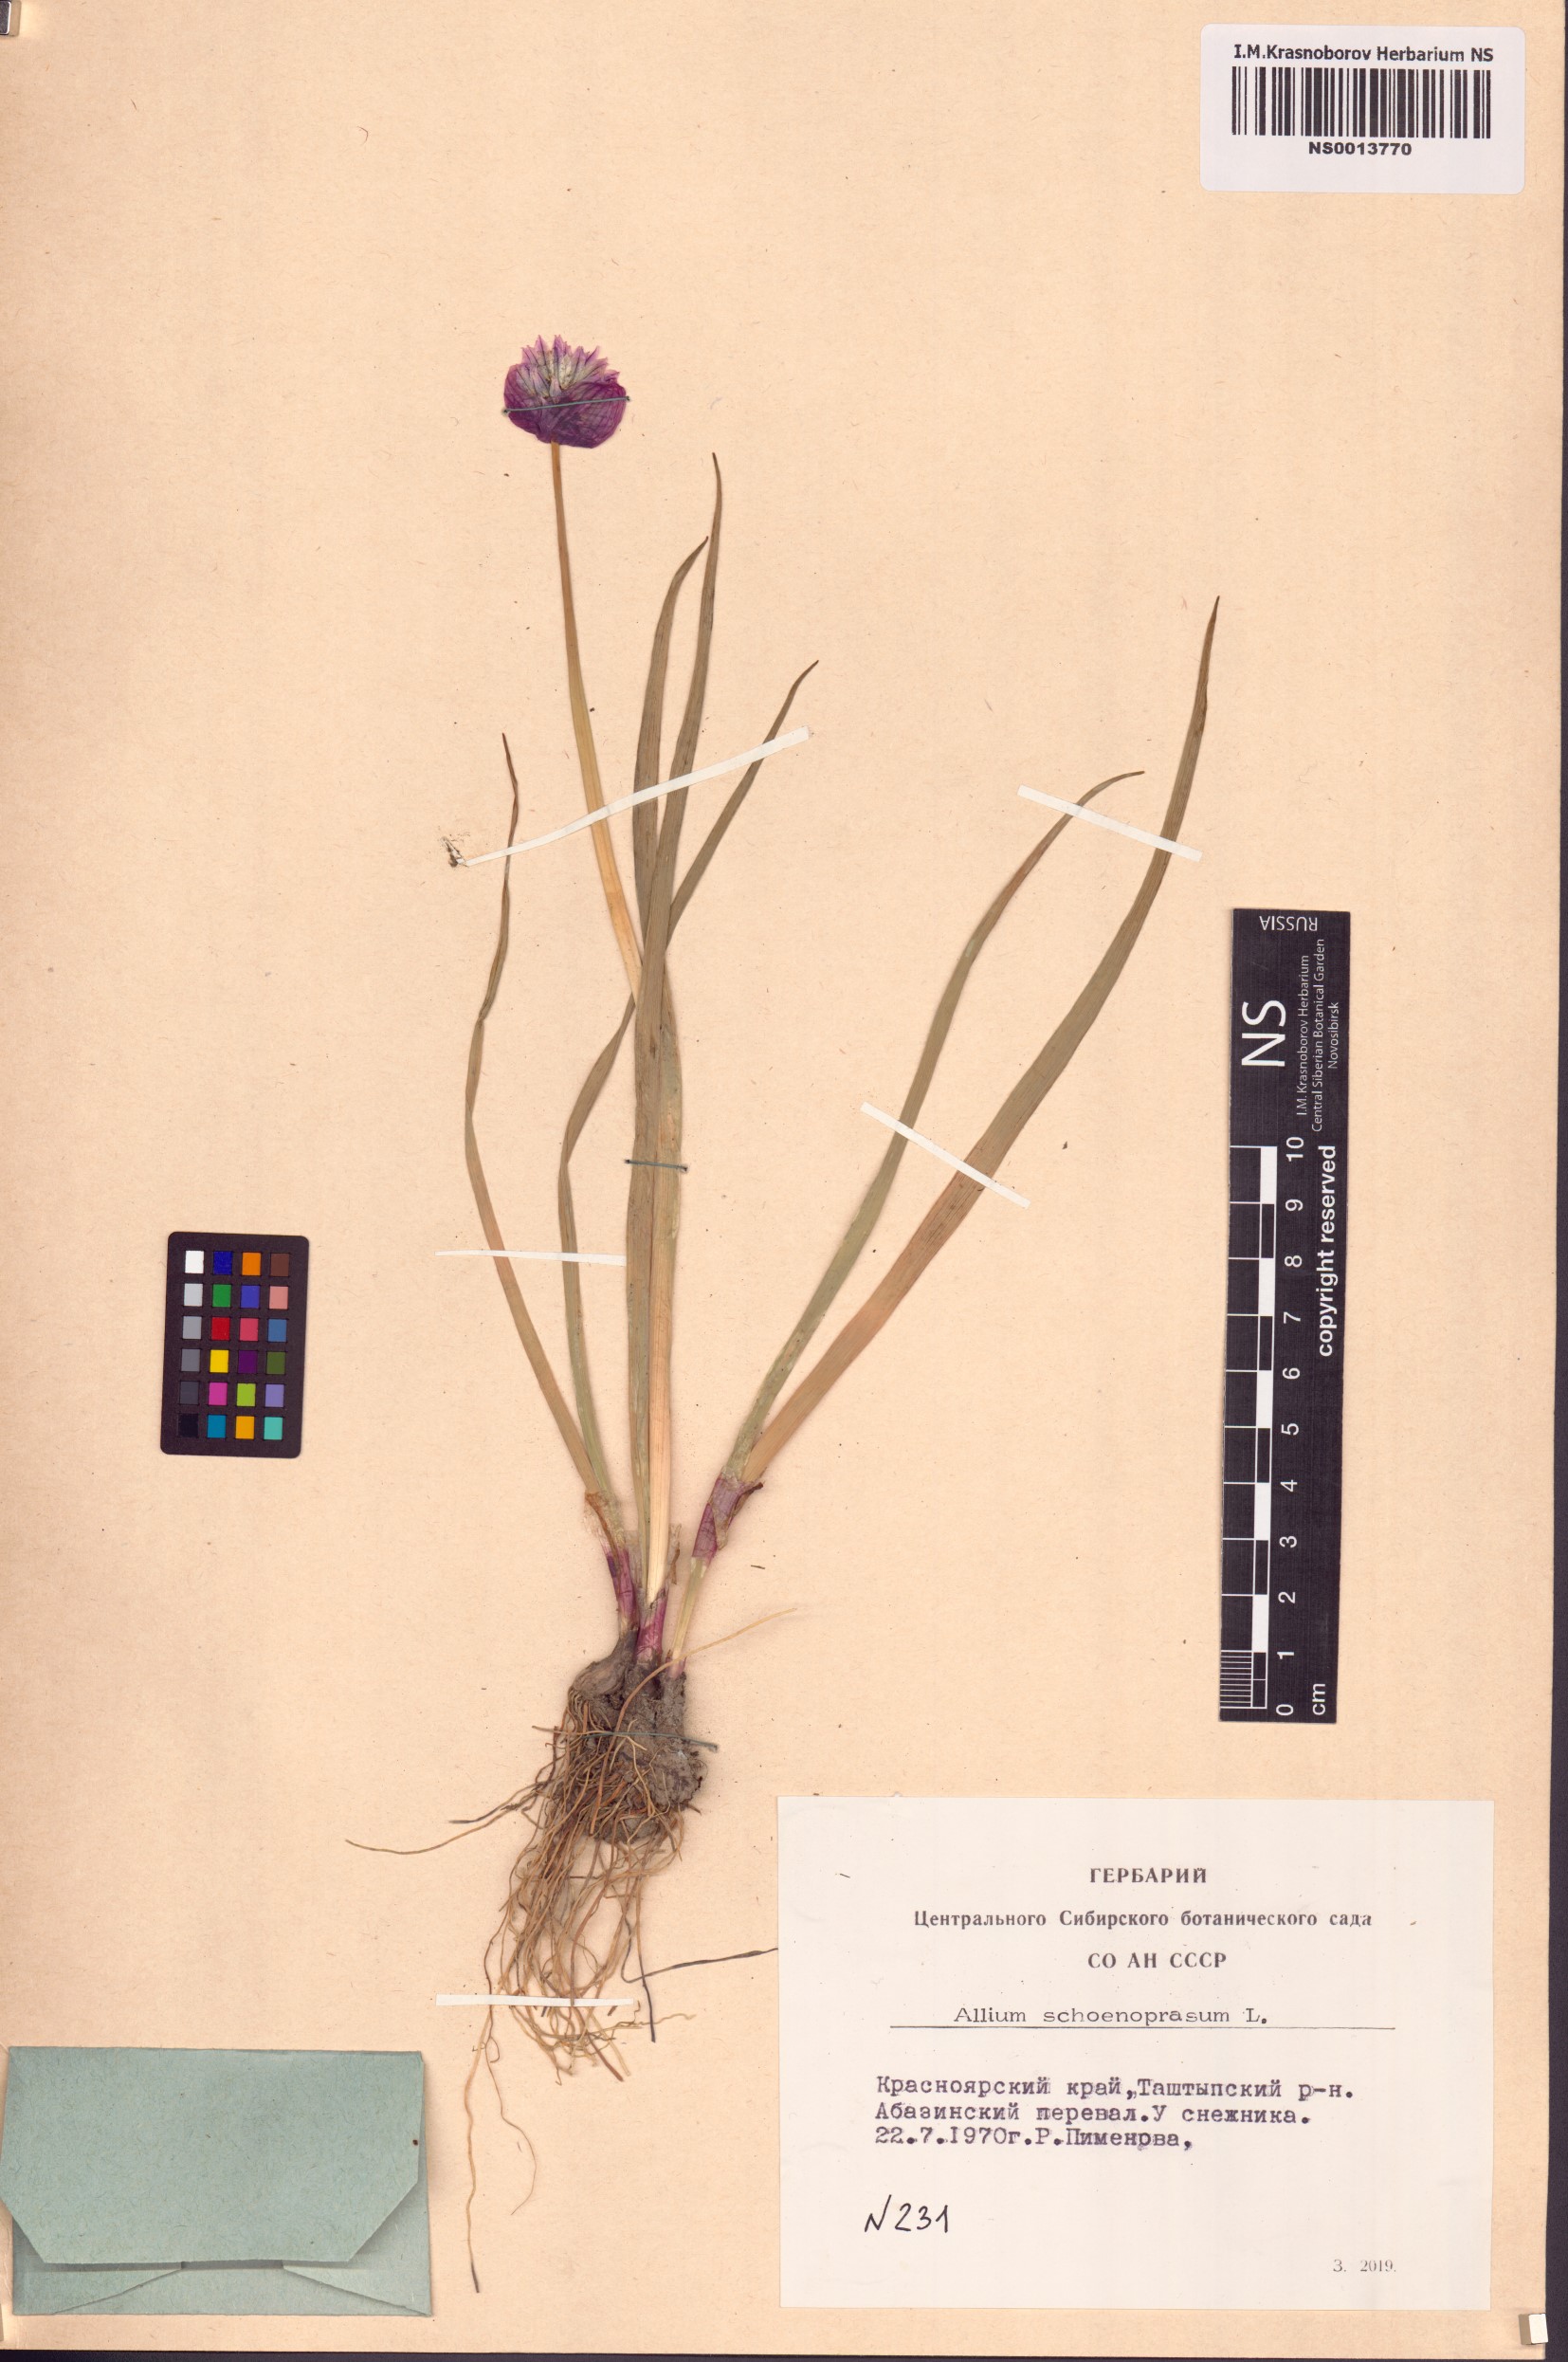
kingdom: Plantae
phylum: Tracheophyta
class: Liliopsida
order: Asparagales
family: Amaryllidaceae
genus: Allium
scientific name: Allium schoenoprasum
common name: Chives
